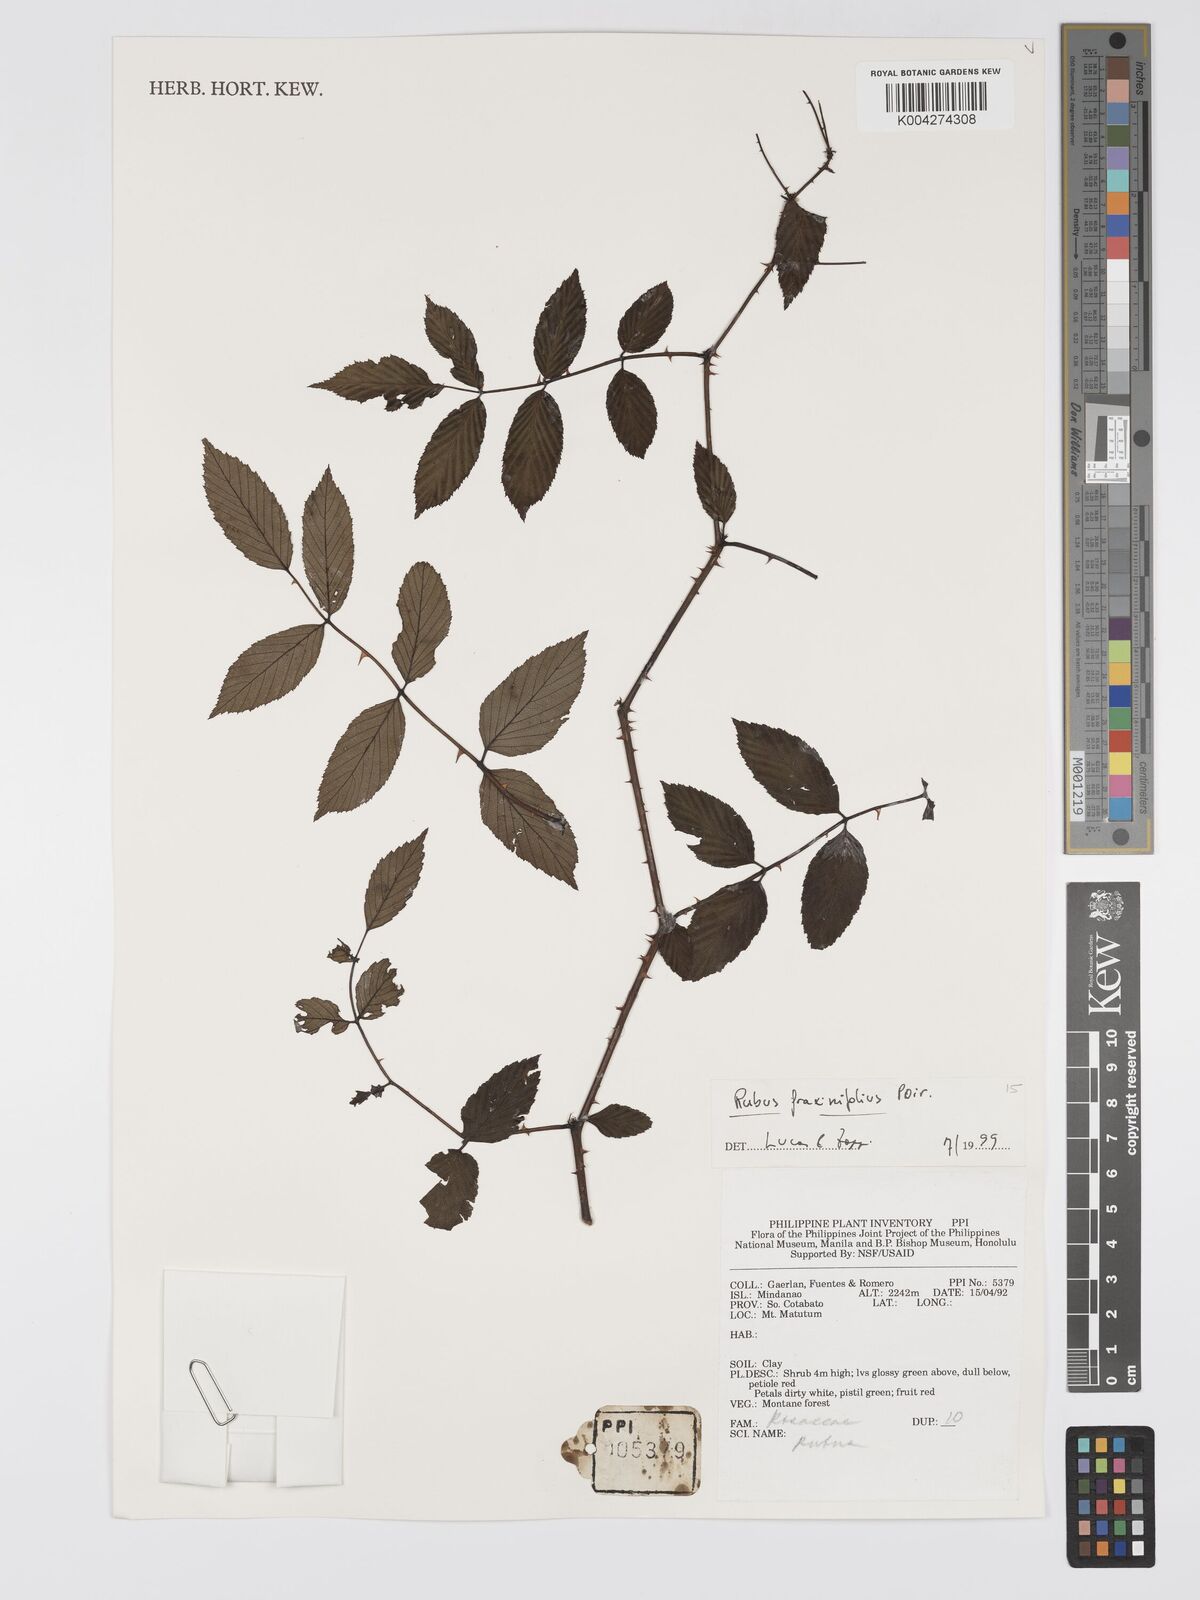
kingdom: Plantae
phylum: Tracheophyta
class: Magnoliopsida
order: Rosales
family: Rosaceae
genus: Rubus
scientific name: Rubus fraxinifolius
